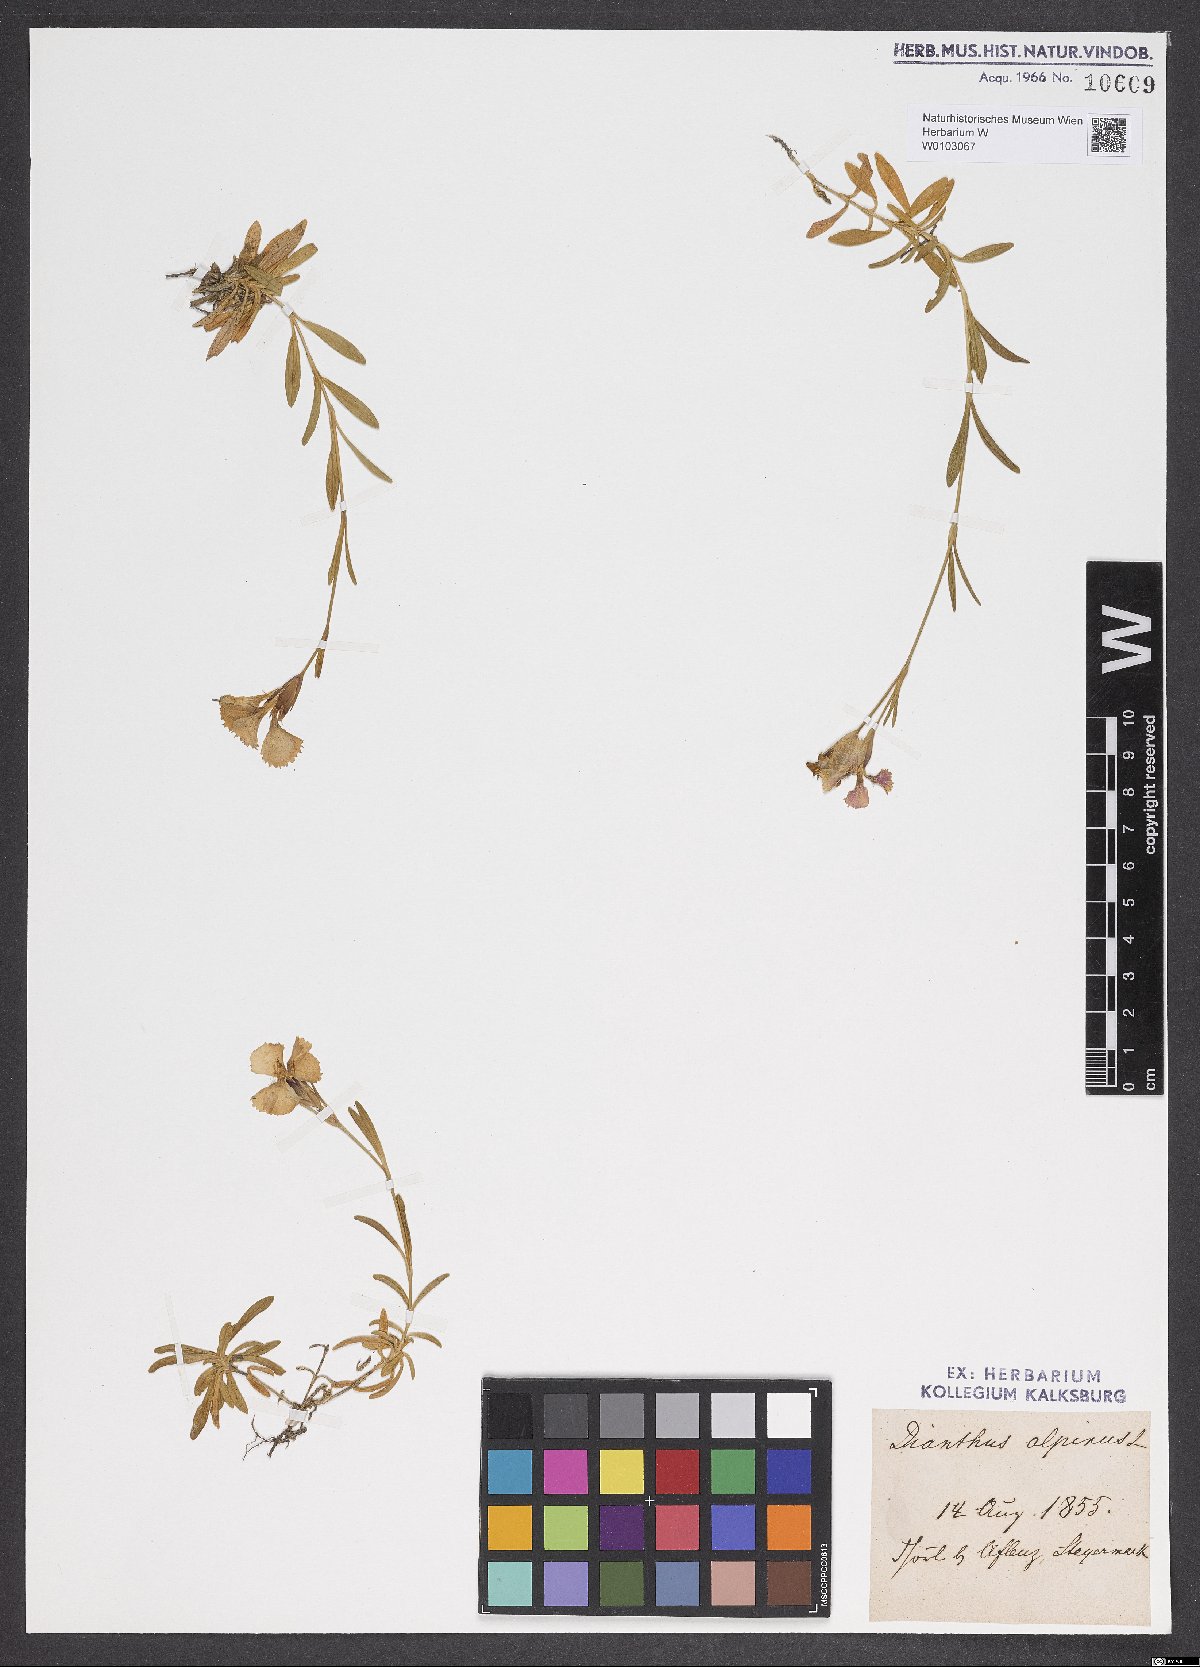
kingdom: Plantae
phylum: Tracheophyta
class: Magnoliopsida
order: Caryophyllales
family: Caryophyllaceae
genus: Dianthus
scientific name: Dianthus alpinus
